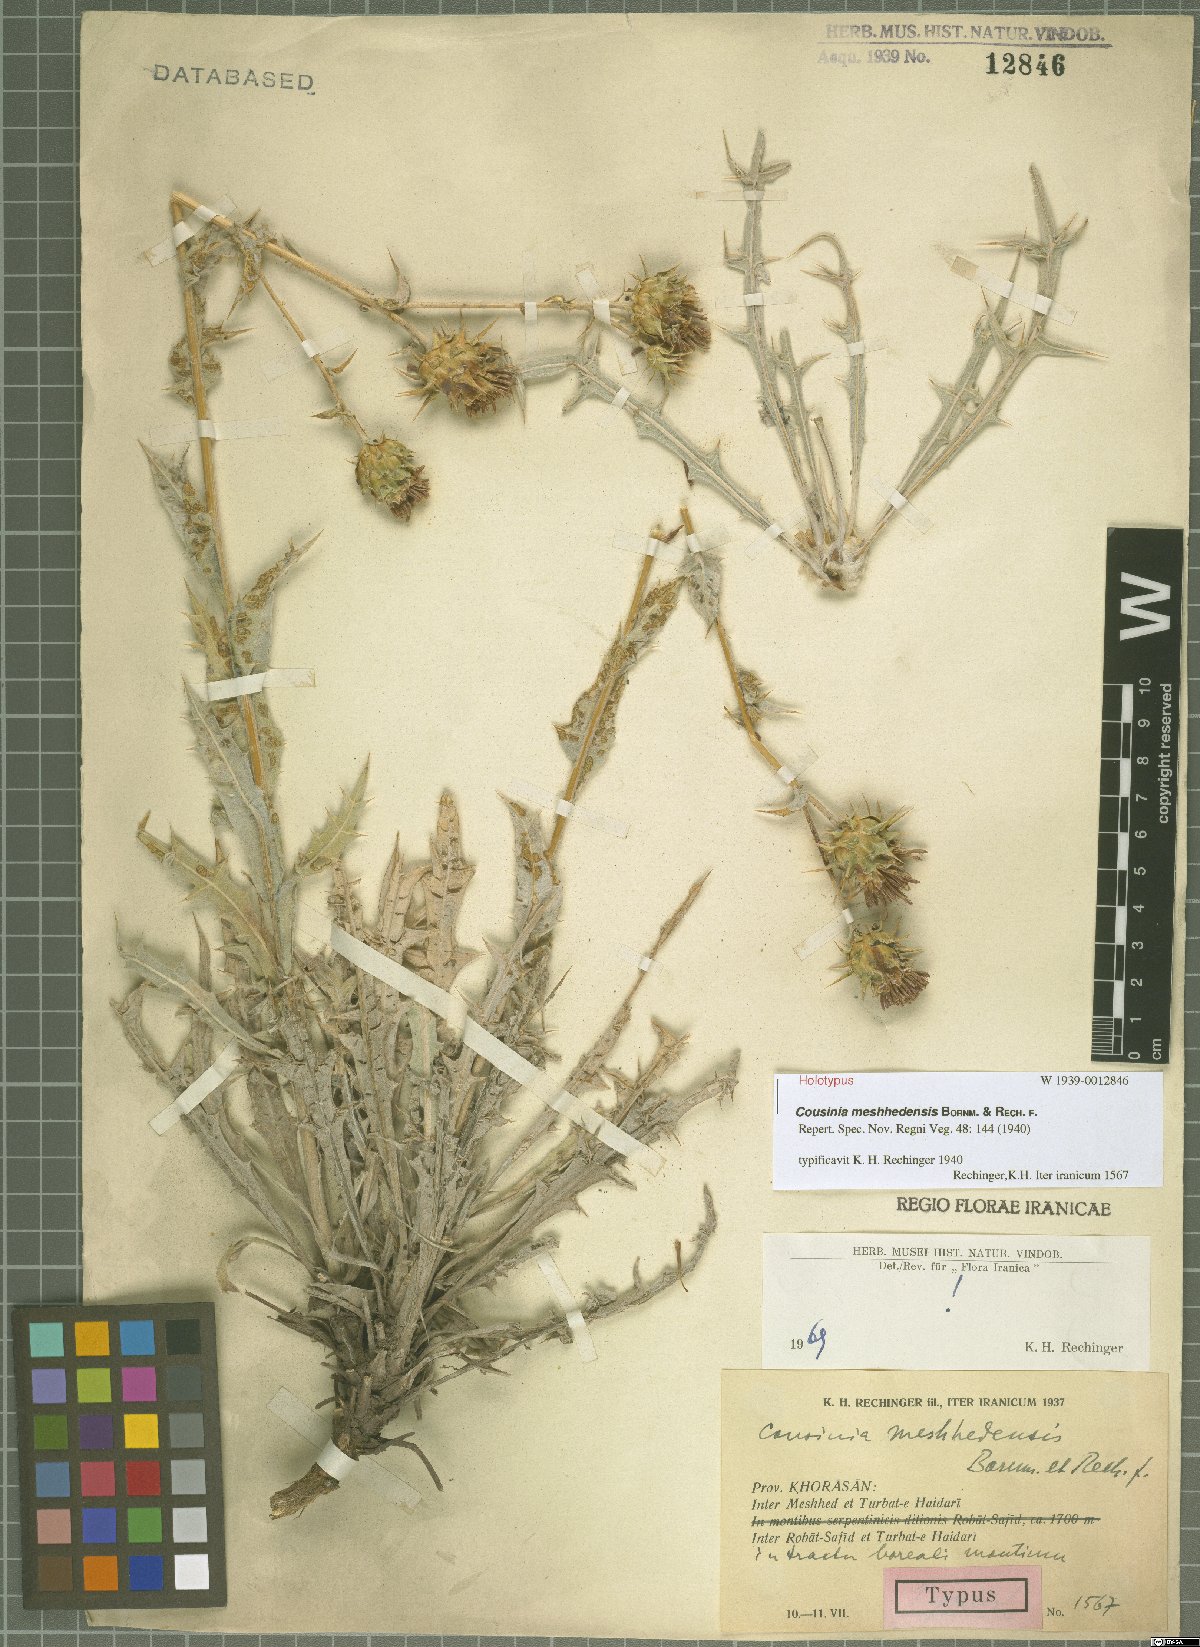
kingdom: Plantae
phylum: Tracheophyta
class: Magnoliopsida
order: Asterales
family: Asteraceae
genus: Cousinia
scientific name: Cousinia meshhedensis
